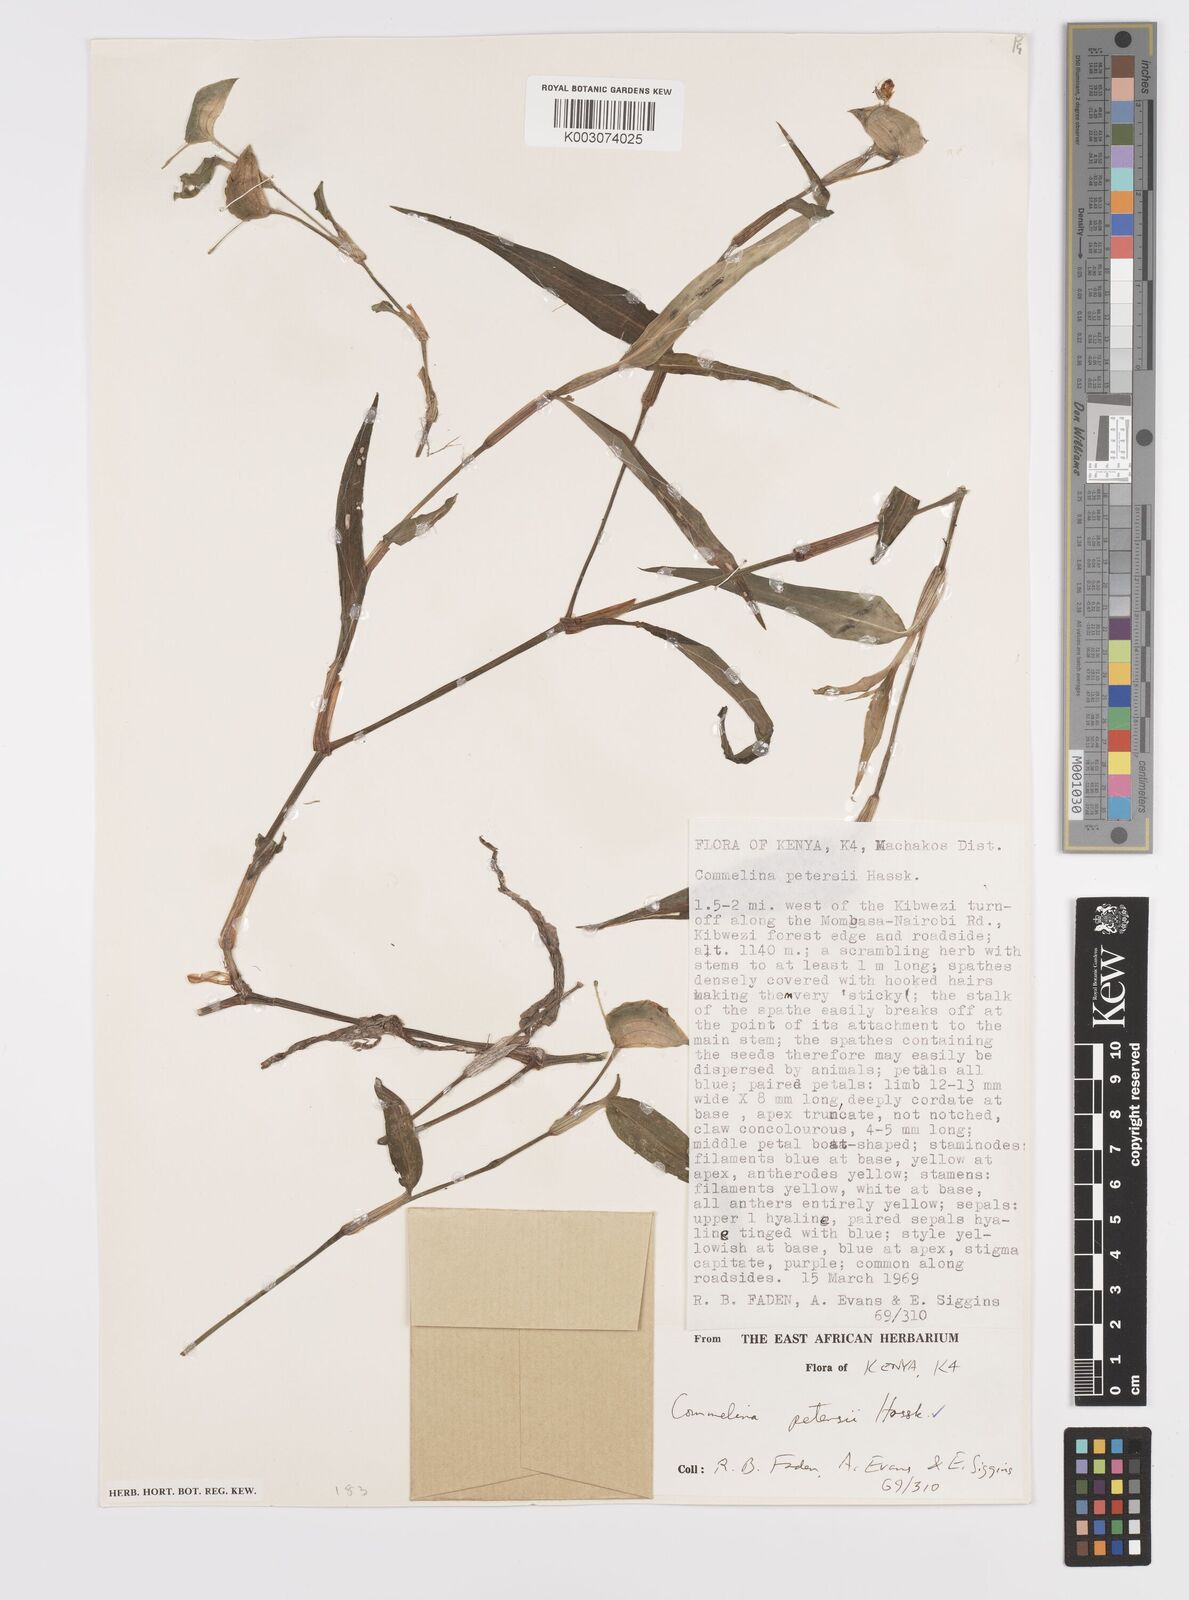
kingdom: Plantae
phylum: Tracheophyta
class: Liliopsida
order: Commelinales
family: Commelinaceae
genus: Commelina
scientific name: Commelina petersii
